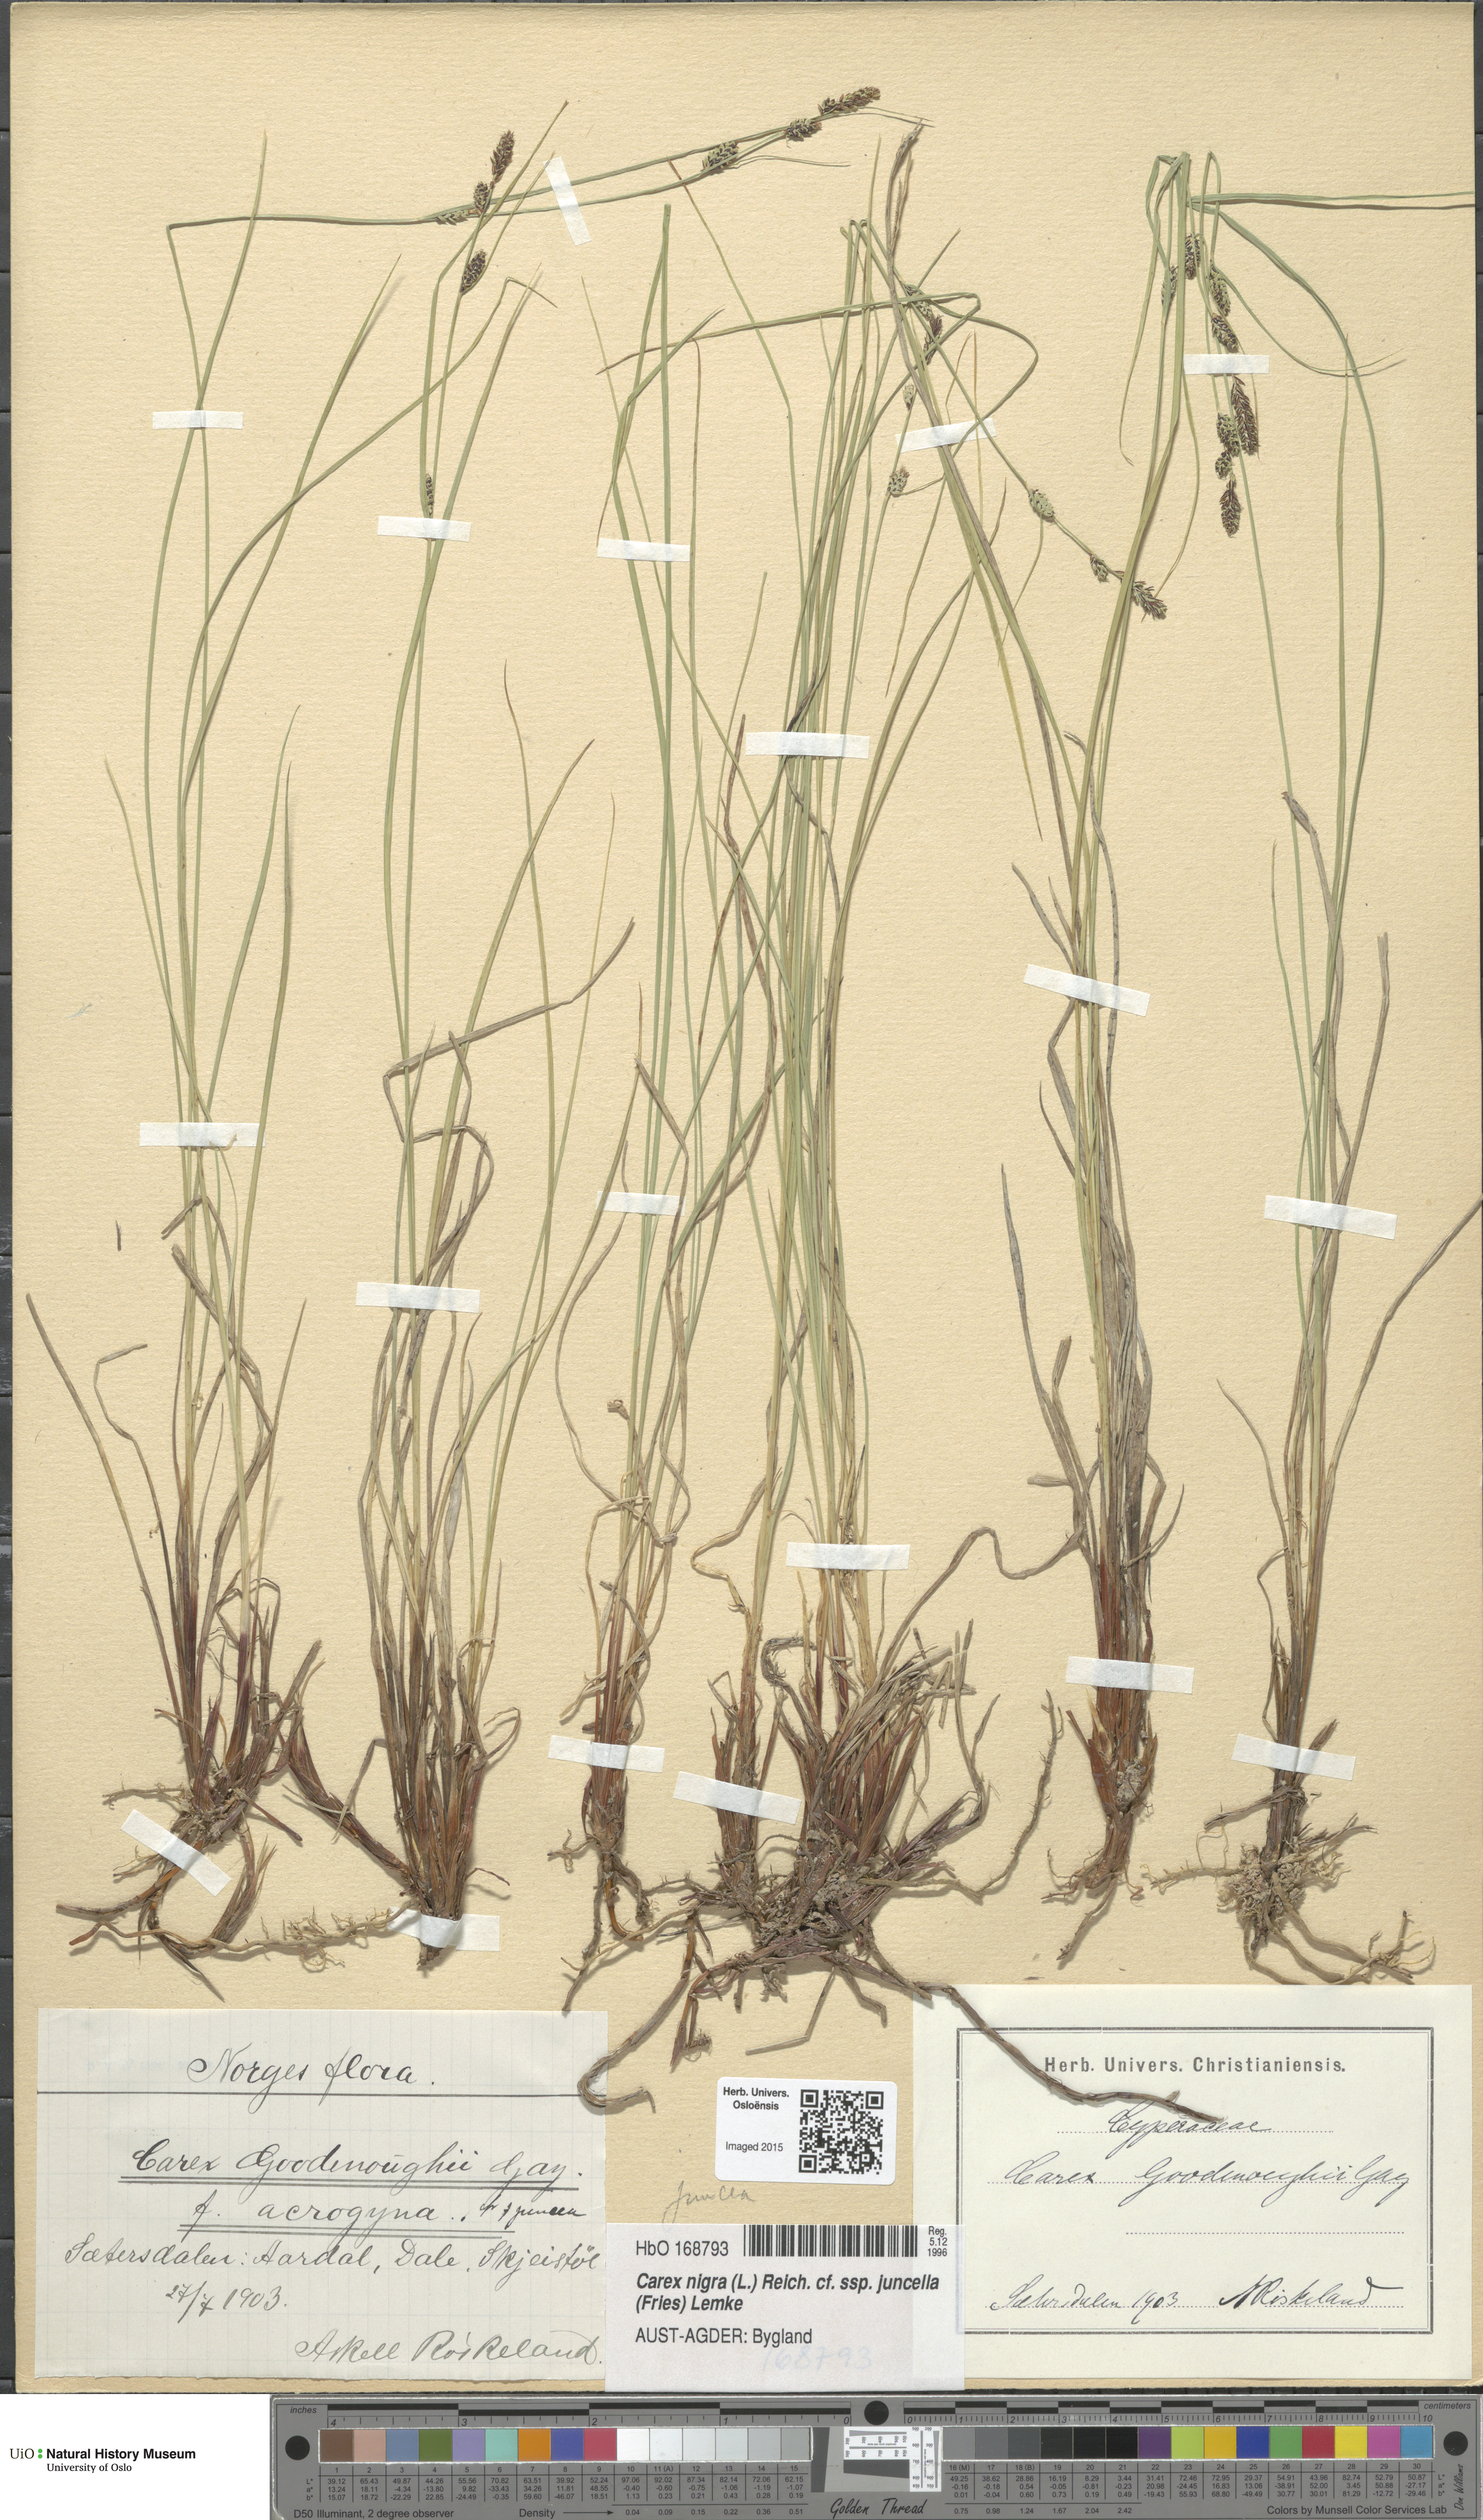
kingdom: Plantae
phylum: Tracheophyta
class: Liliopsida
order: Poales
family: Cyperaceae
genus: Carex
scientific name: Carex nigra
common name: Common sedge
